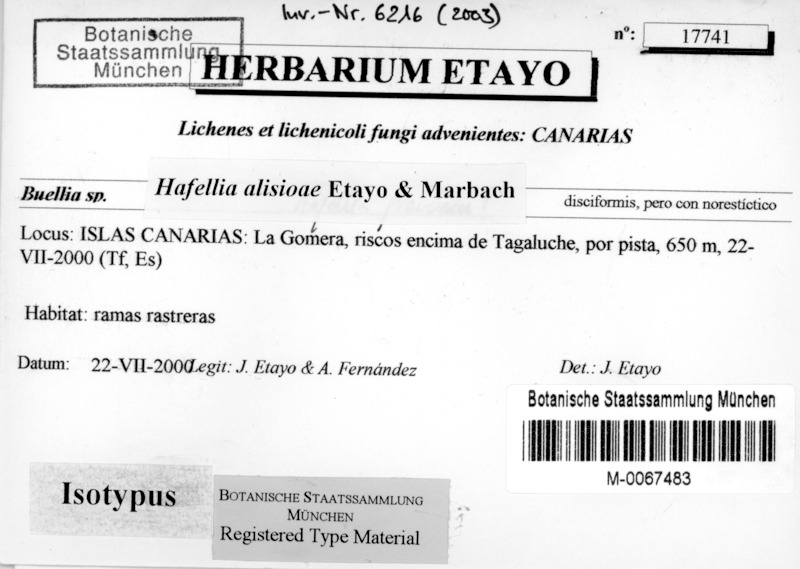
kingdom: Fungi
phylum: Ascomycota
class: Lecanoromycetes
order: Caliciales
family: Caliciaceae
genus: Hafellia
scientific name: Hafellia alisioae
